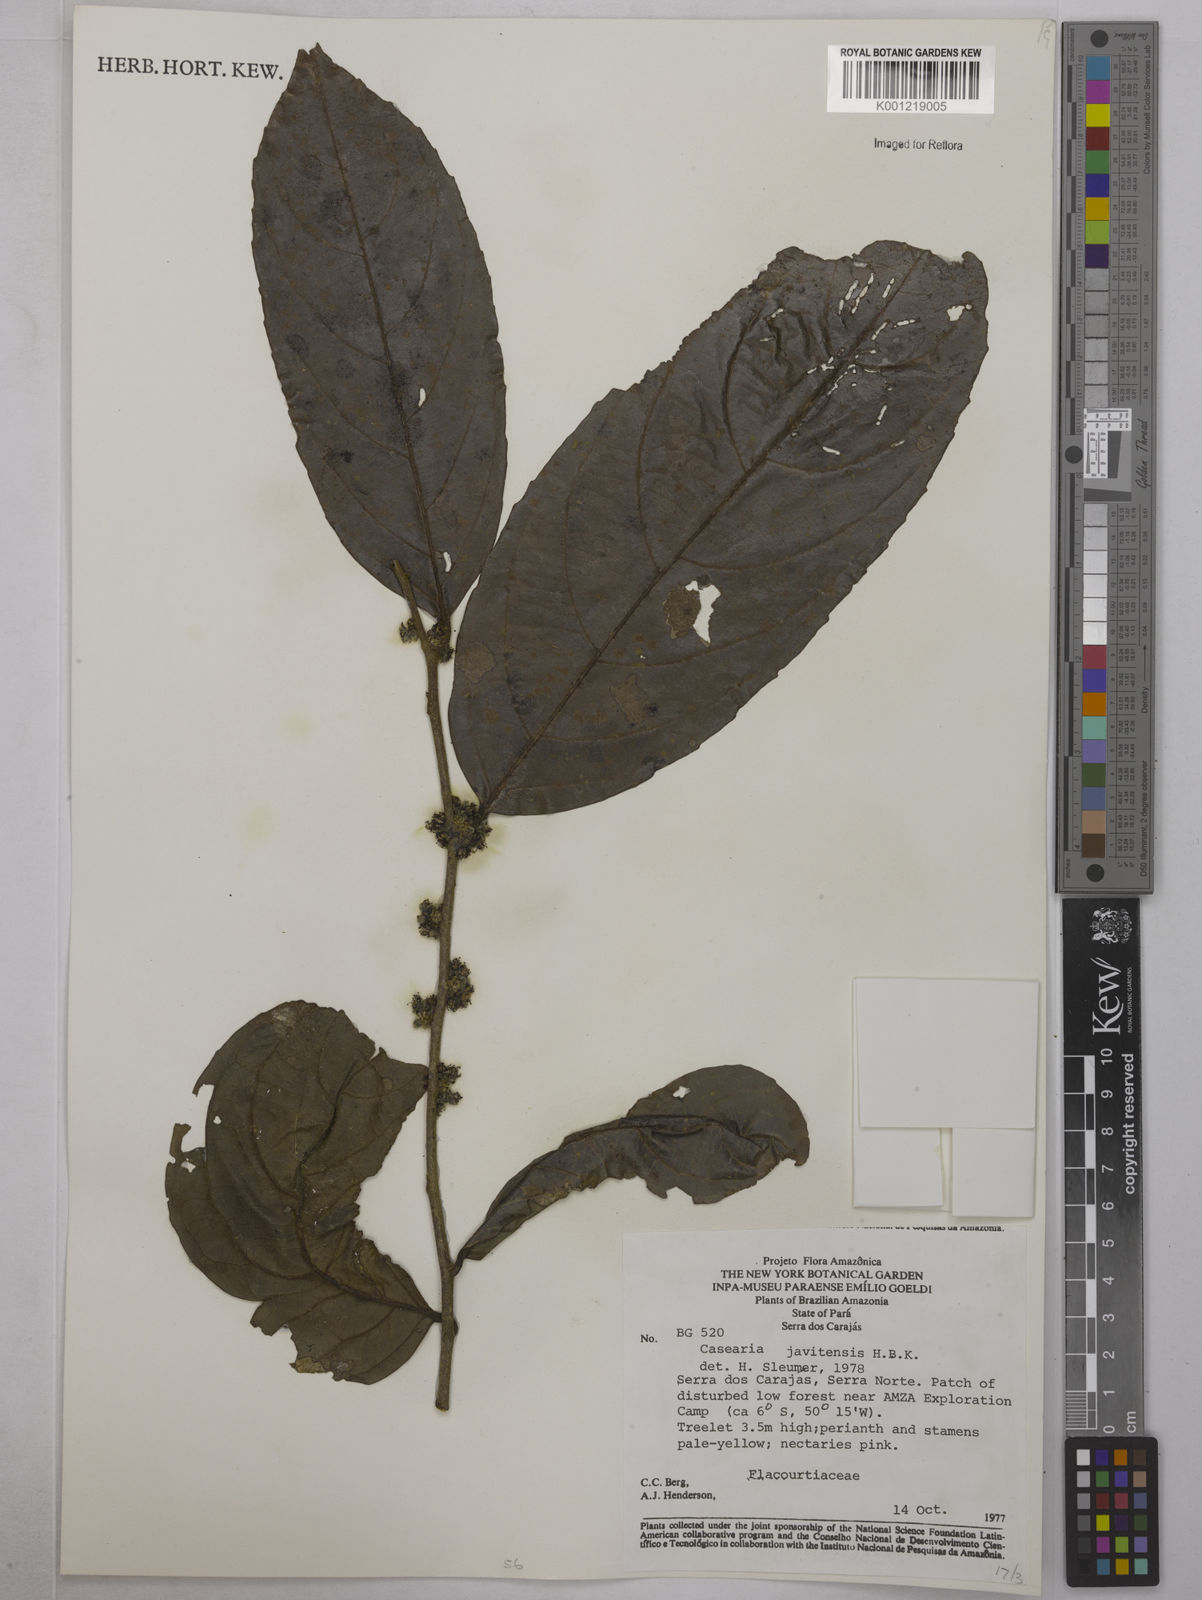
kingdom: Plantae
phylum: Tracheophyta
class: Magnoliopsida
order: Malpighiales
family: Salicaceae
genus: Piparea
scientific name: Piparea multiflora
